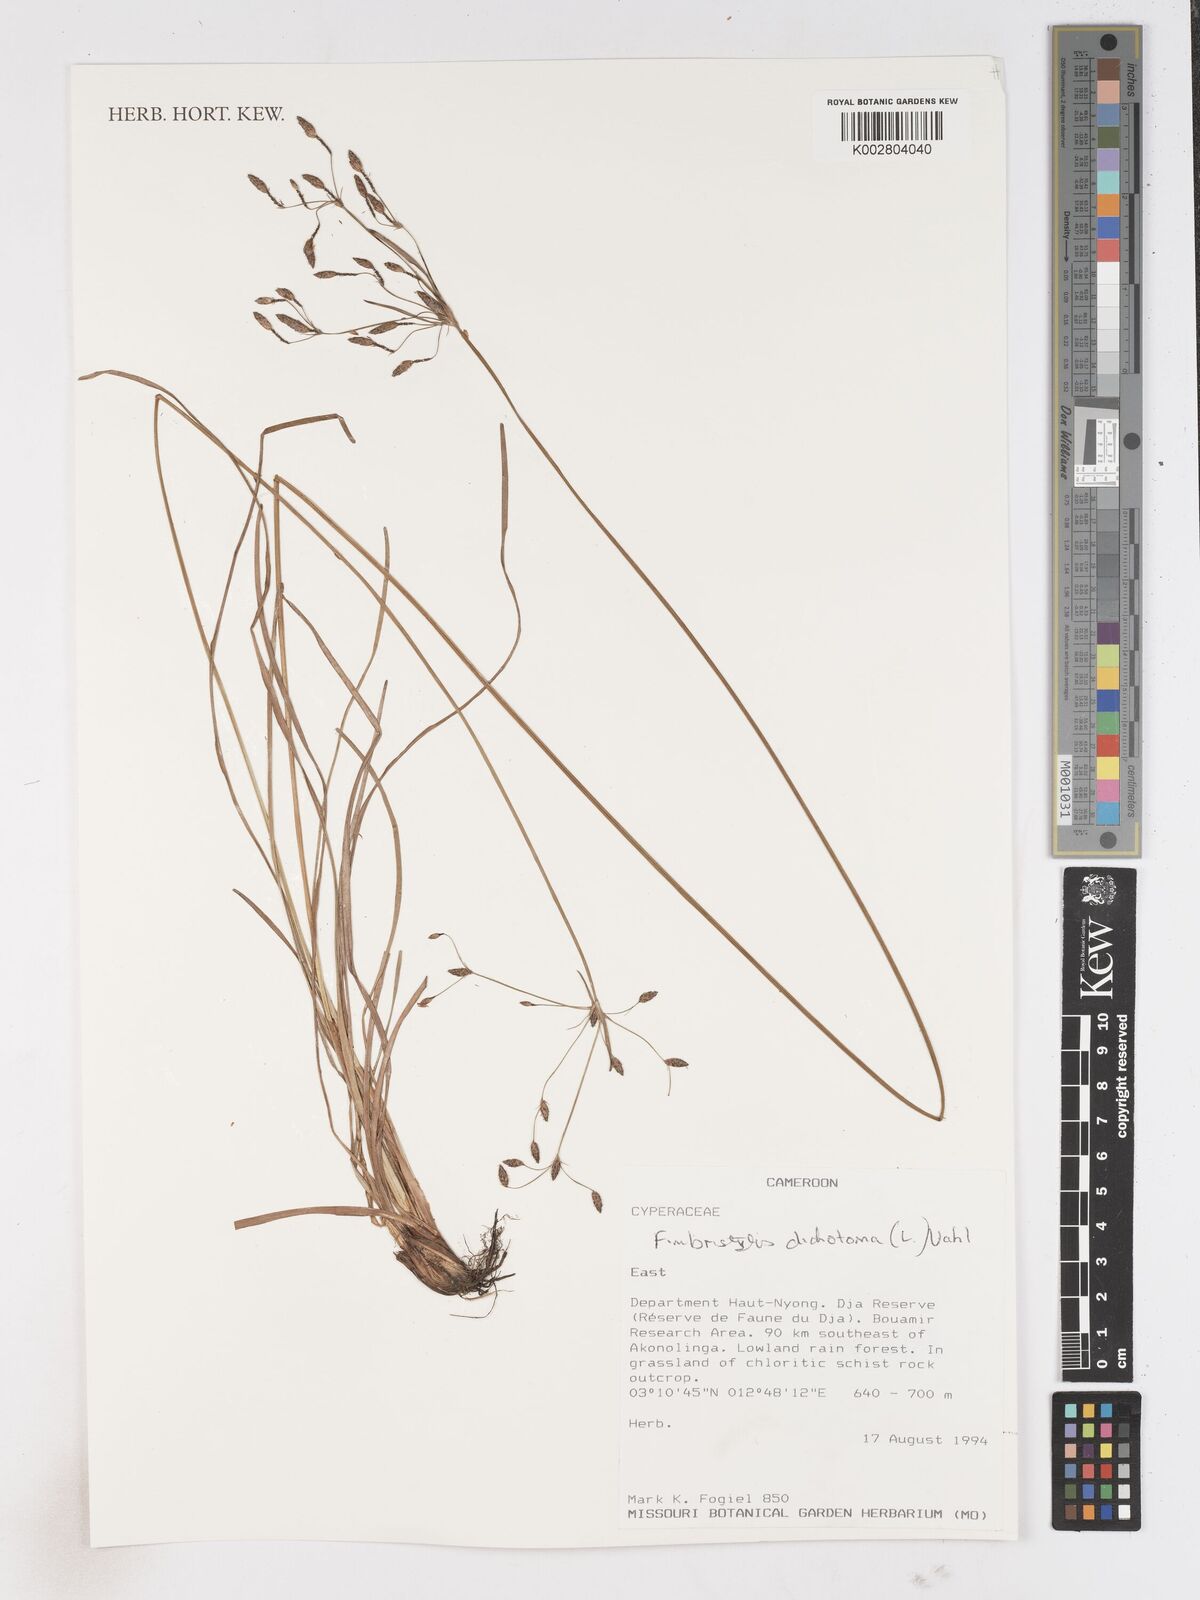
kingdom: Plantae
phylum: Tracheophyta
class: Liliopsida
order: Poales
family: Cyperaceae
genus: Fimbristylis
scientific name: Fimbristylis dichotoma
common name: Forked fimbry
